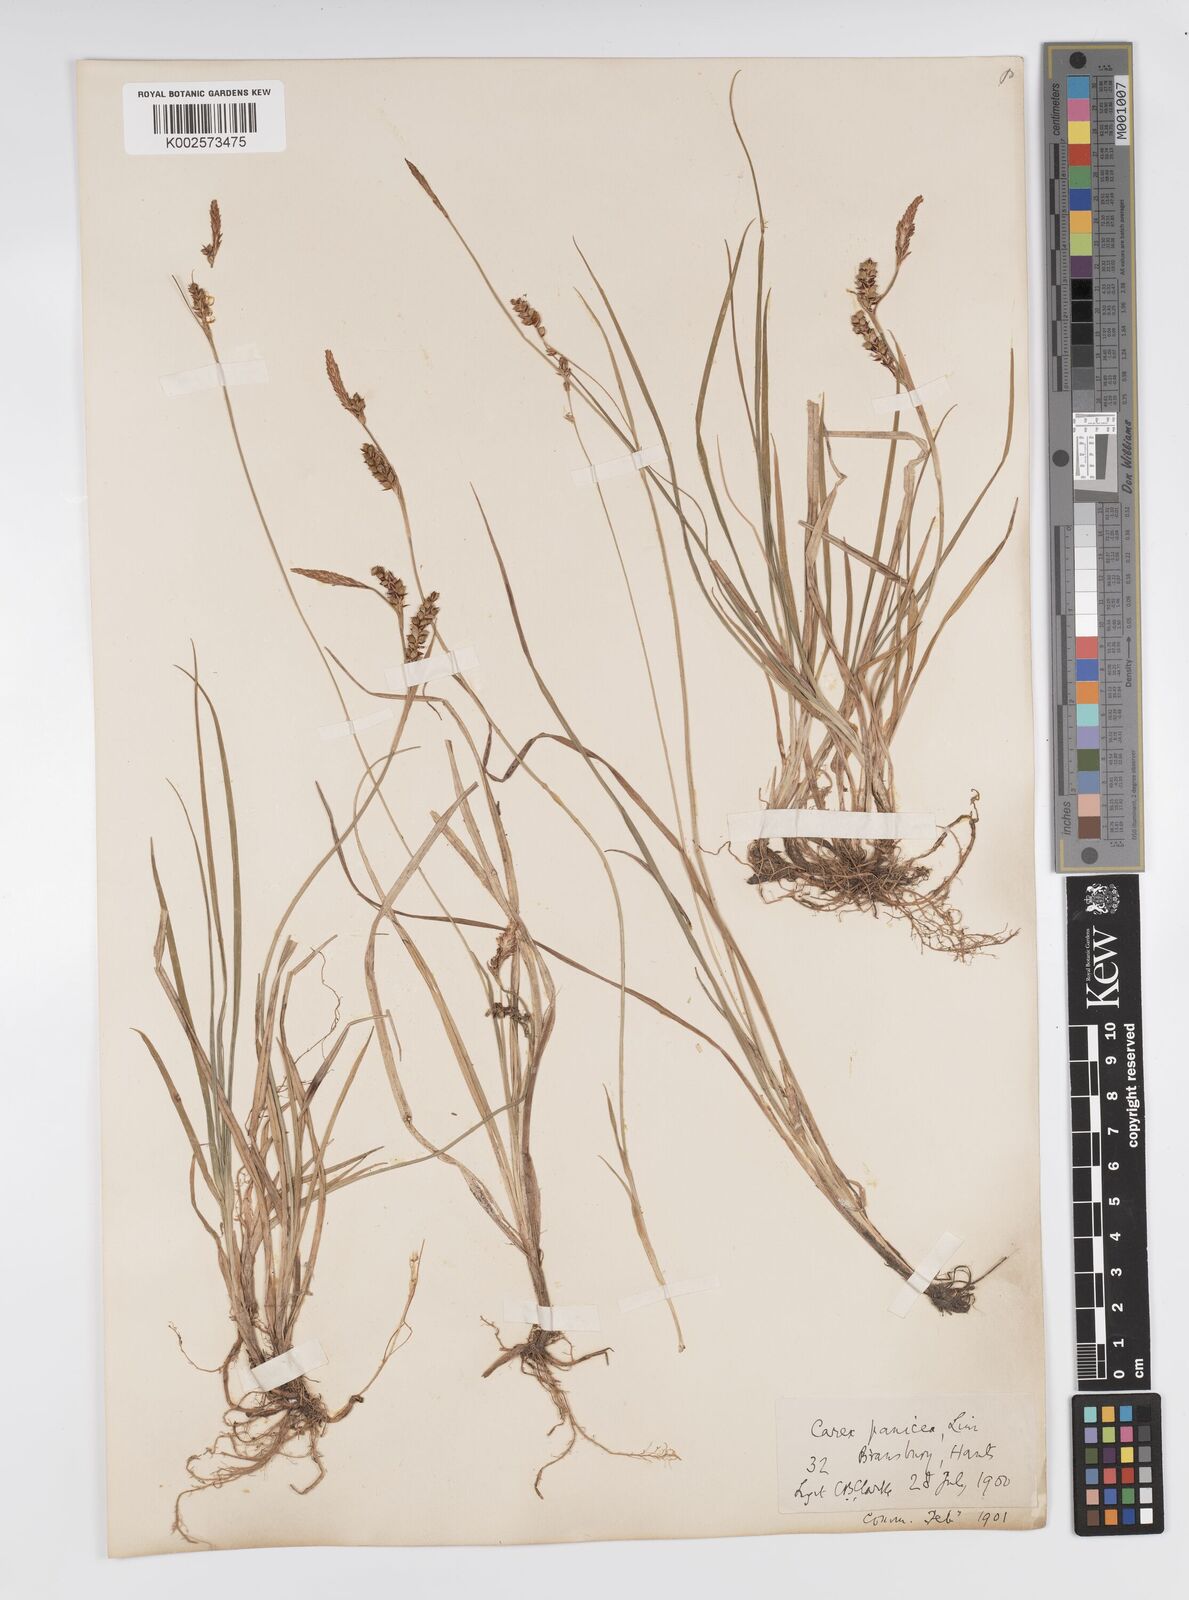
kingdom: Plantae
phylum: Tracheophyta
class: Liliopsida
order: Poales
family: Cyperaceae
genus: Carex
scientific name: Carex panicea
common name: Carnation sedge
